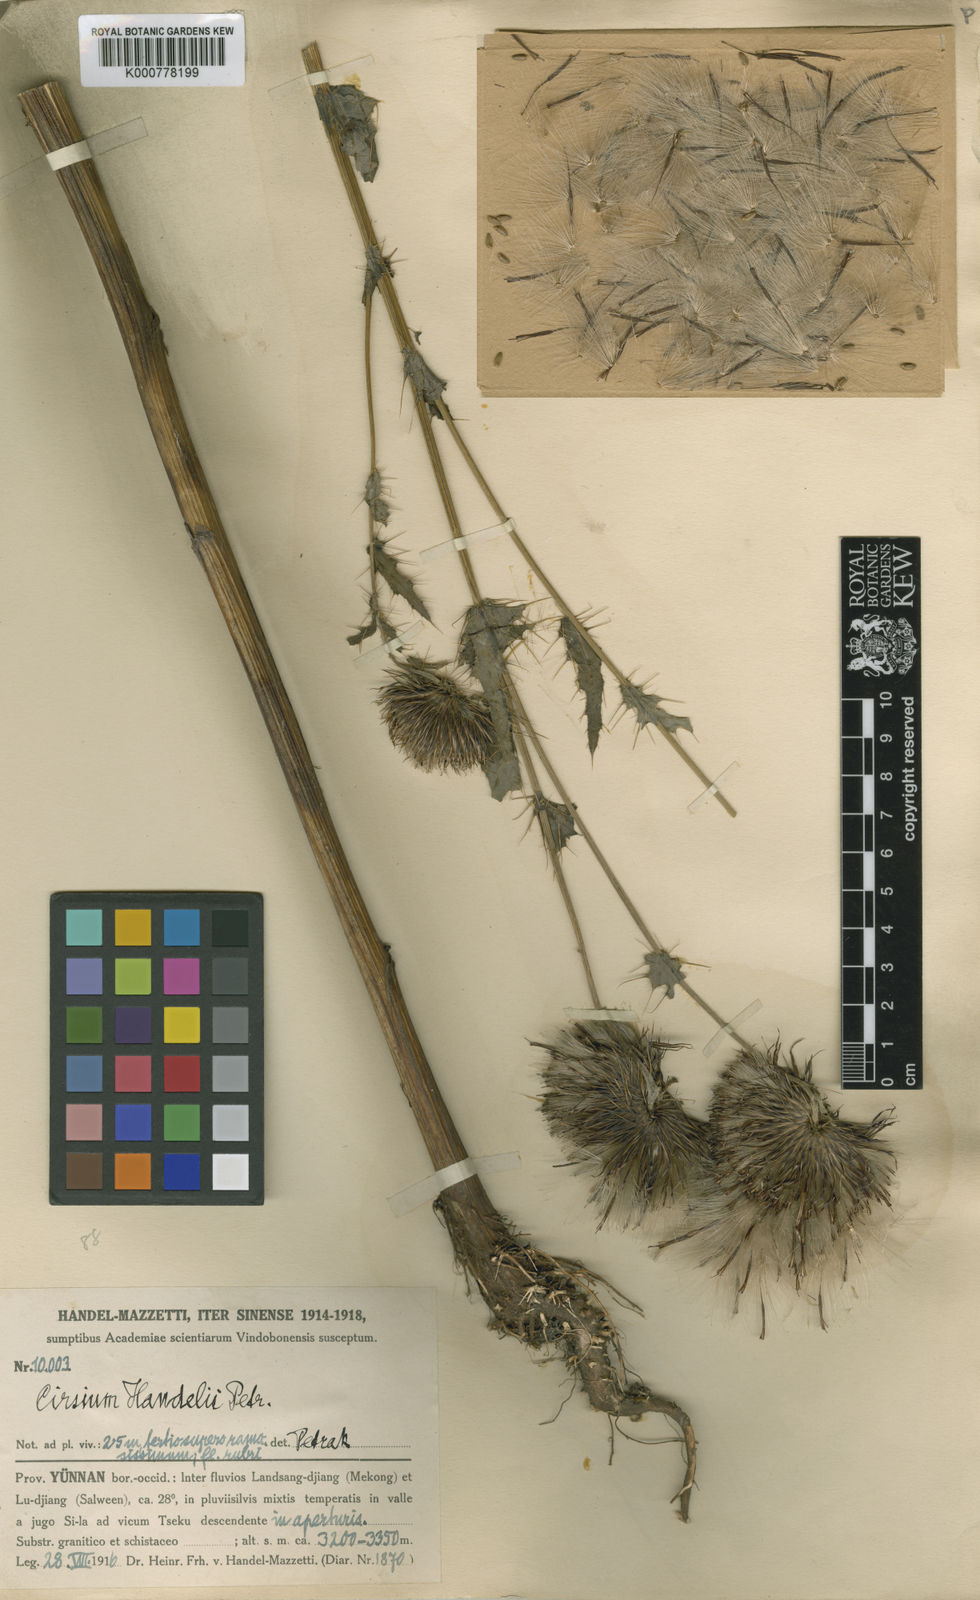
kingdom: Plantae
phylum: Tracheophyta
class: Magnoliopsida
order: Asterales
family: Asteraceae
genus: Cirsium
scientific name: Cirsium handelii
